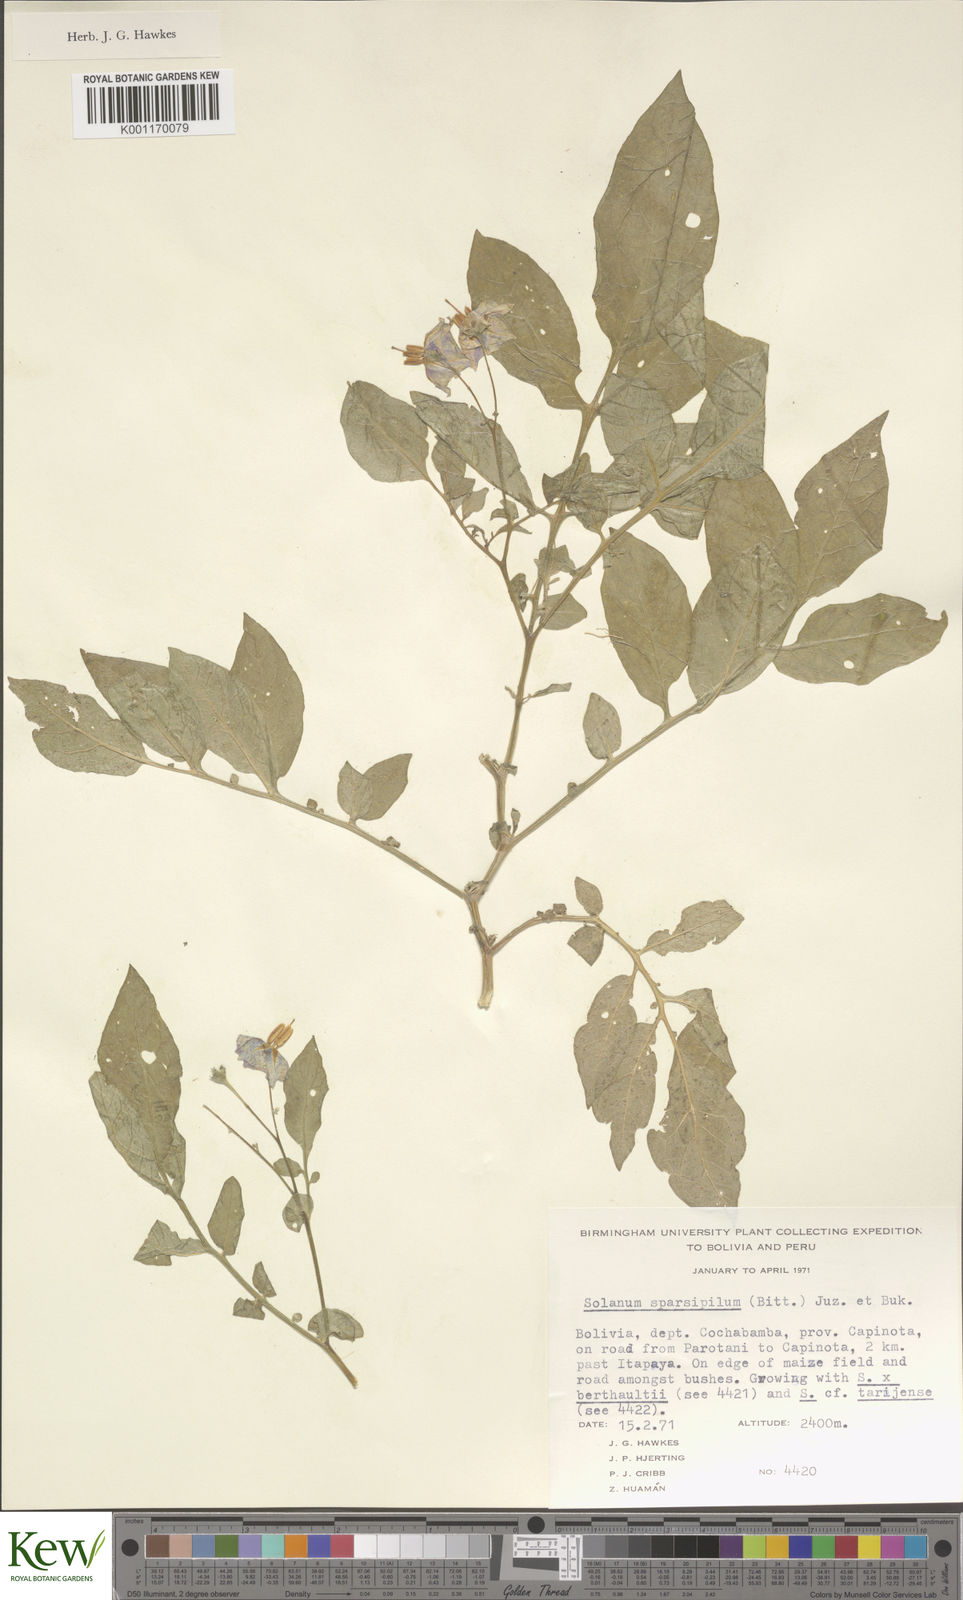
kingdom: Plantae
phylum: Tracheophyta
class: Magnoliopsida
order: Solanales
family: Solanaceae
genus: Solanum
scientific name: Solanum brevicaule
